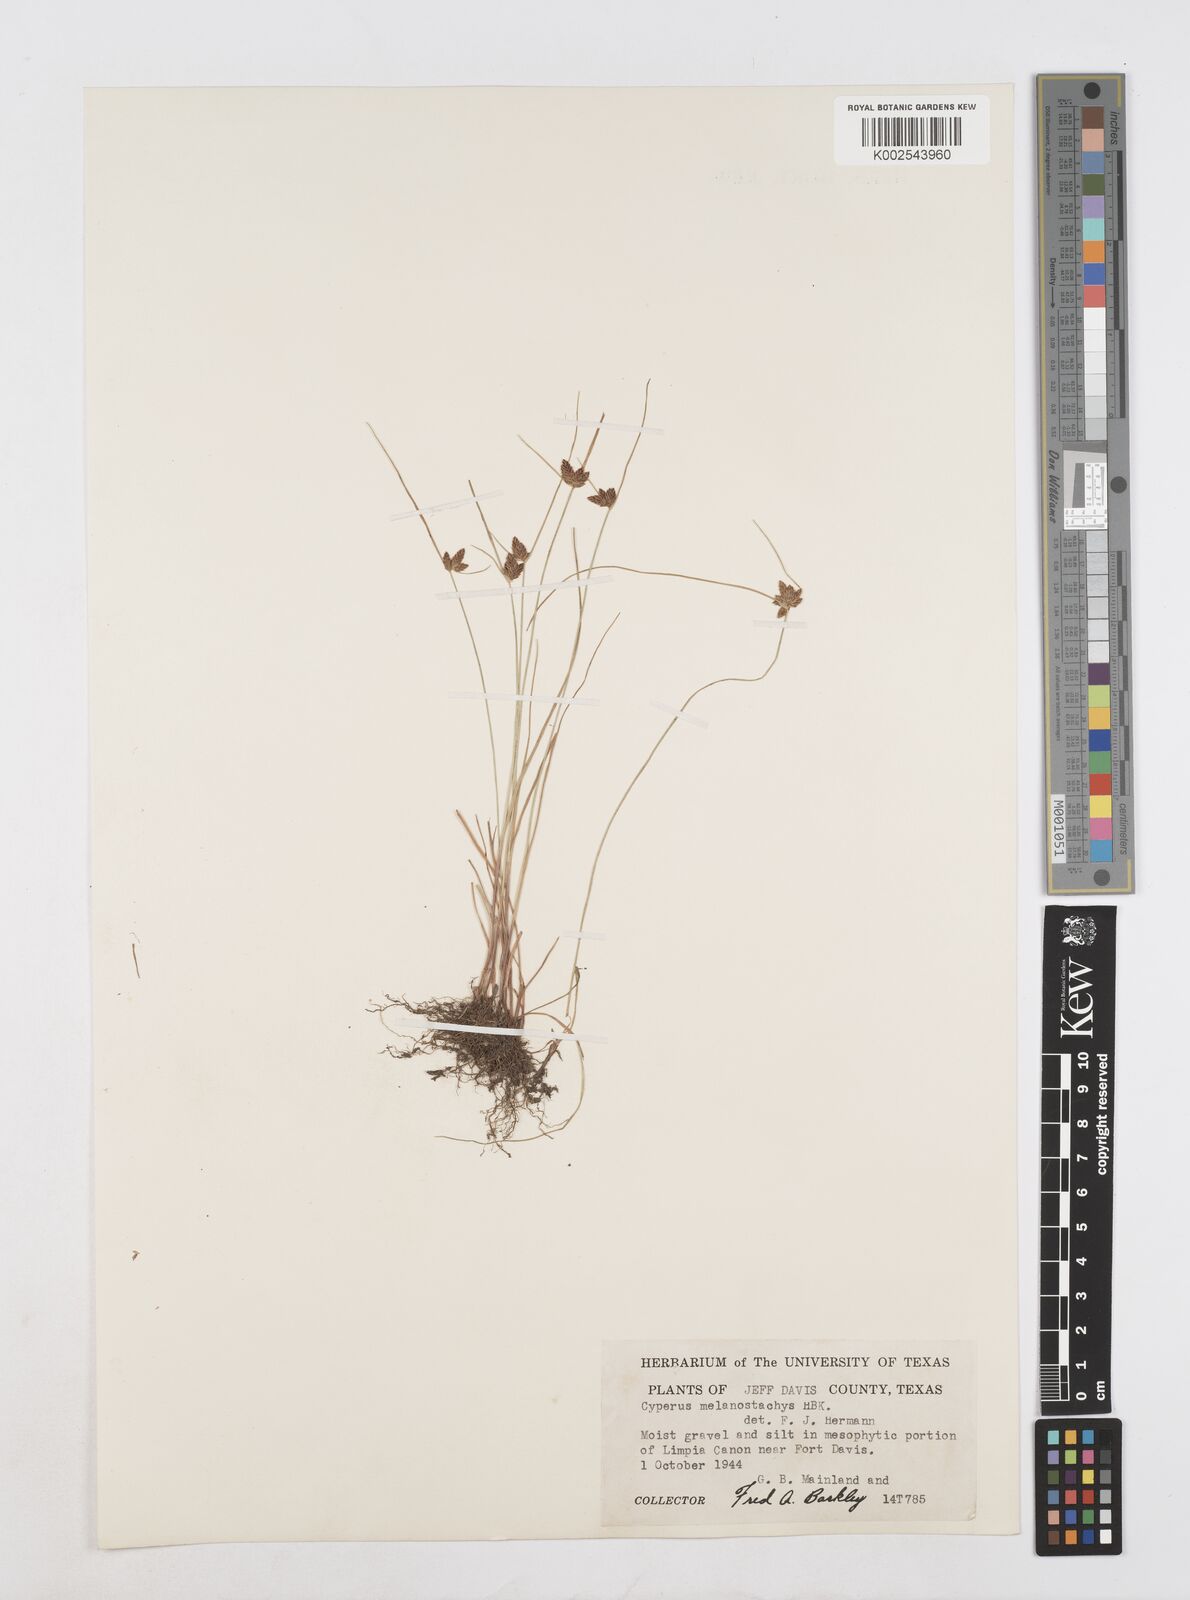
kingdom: Plantae
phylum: Tracheophyta
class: Liliopsida
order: Poales
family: Cyperaceae
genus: Cyperus
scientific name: Cyperus melanostachyus
